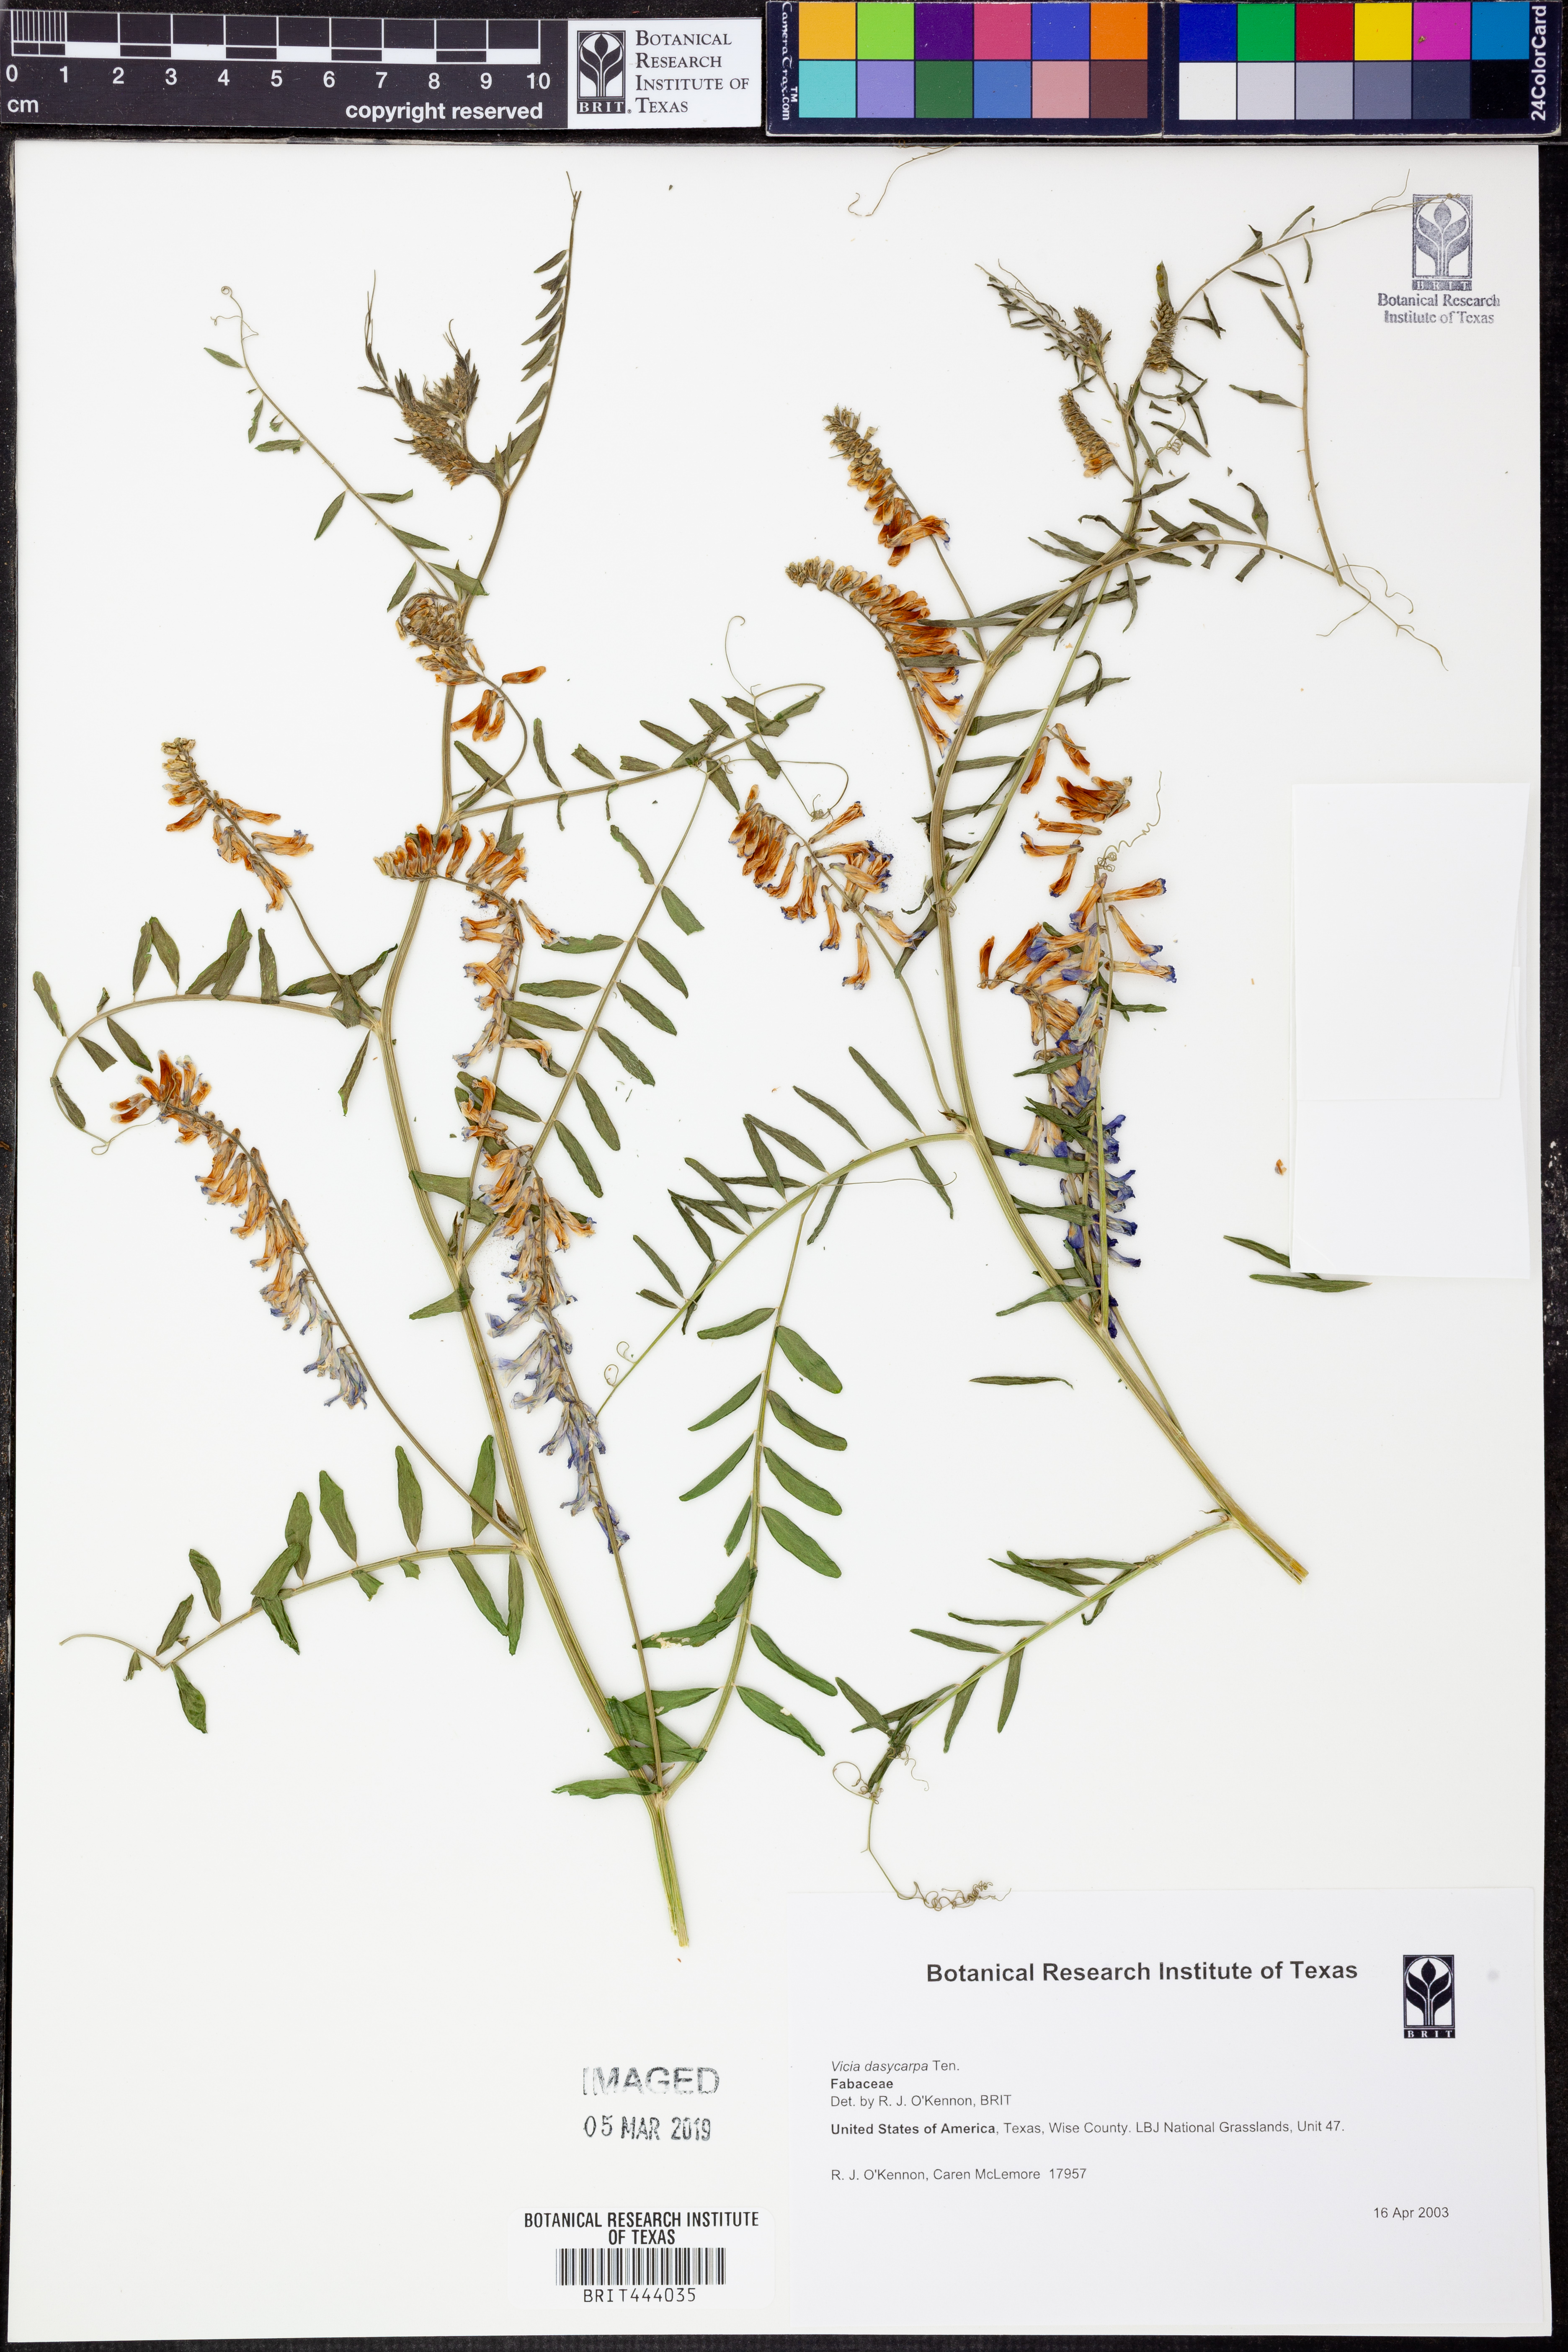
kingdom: Plantae
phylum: Tracheophyta
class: Magnoliopsida
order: Fabales
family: Fabaceae
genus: Vicia
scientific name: Vicia villosa
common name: Fodder vetch
